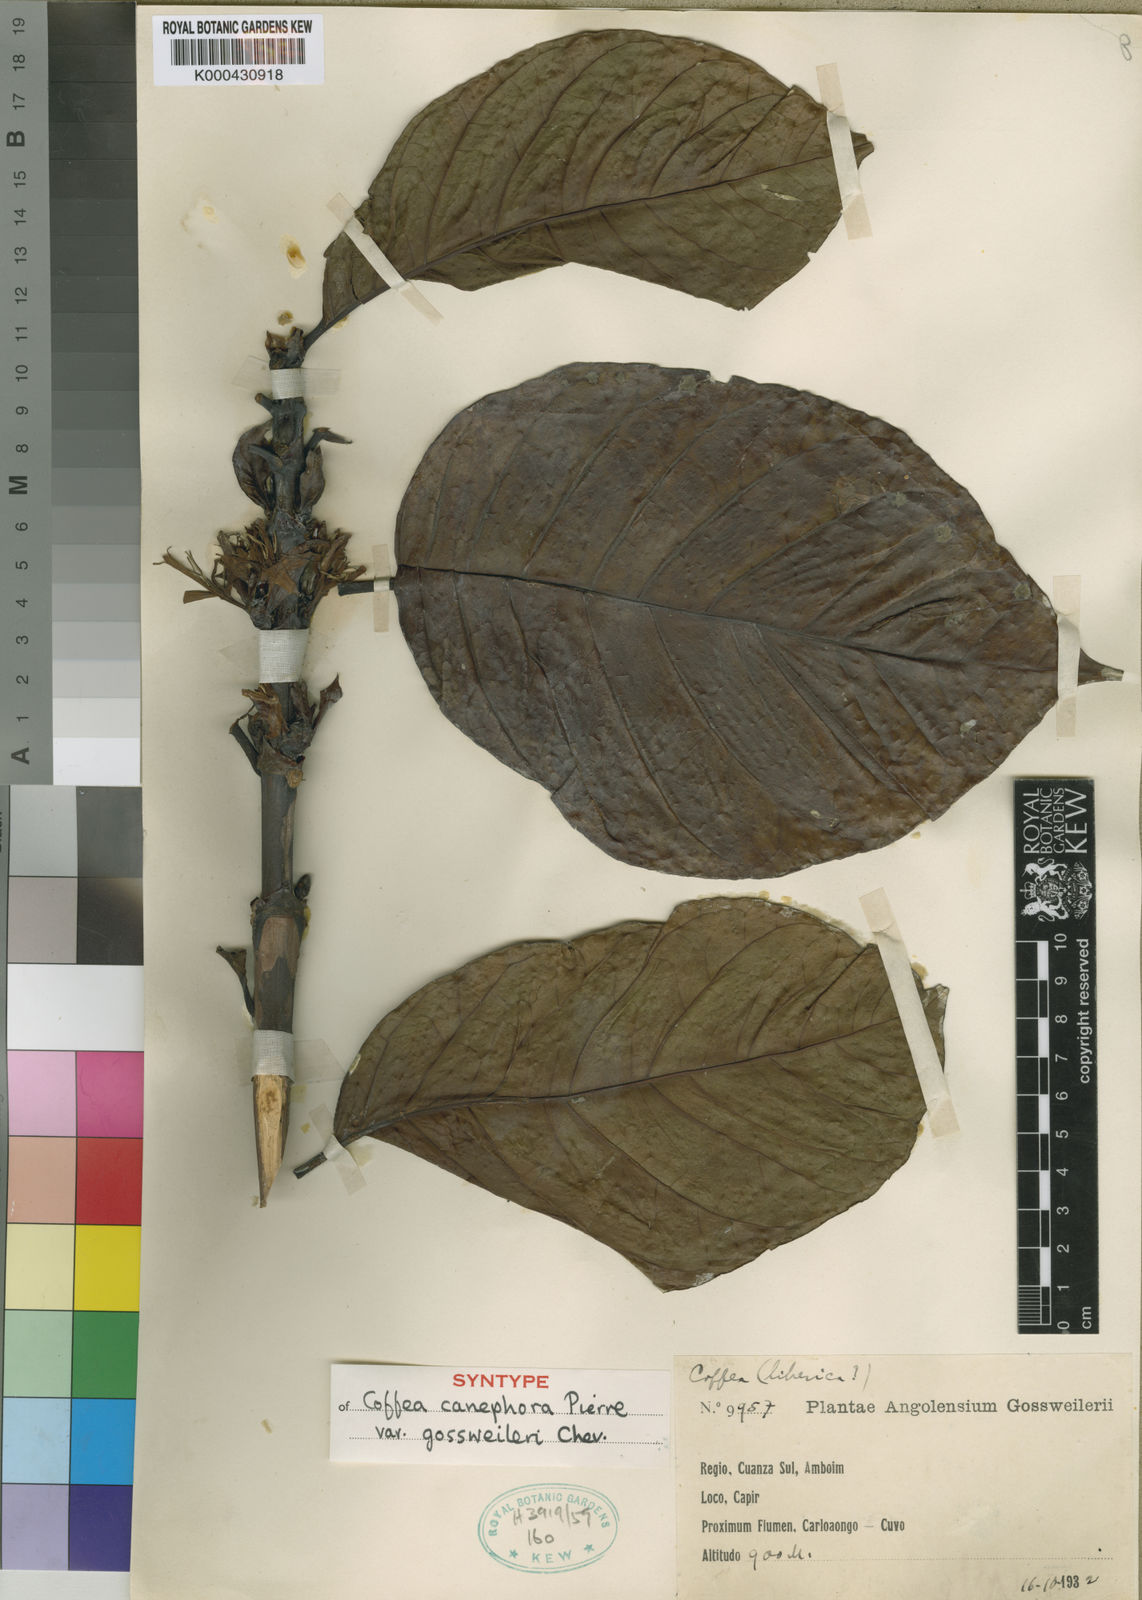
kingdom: Plantae
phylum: Tracheophyta
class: Magnoliopsida
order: Gentianales
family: Rubiaceae
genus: Coffea
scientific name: Coffea canephora
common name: Robusta coffee
